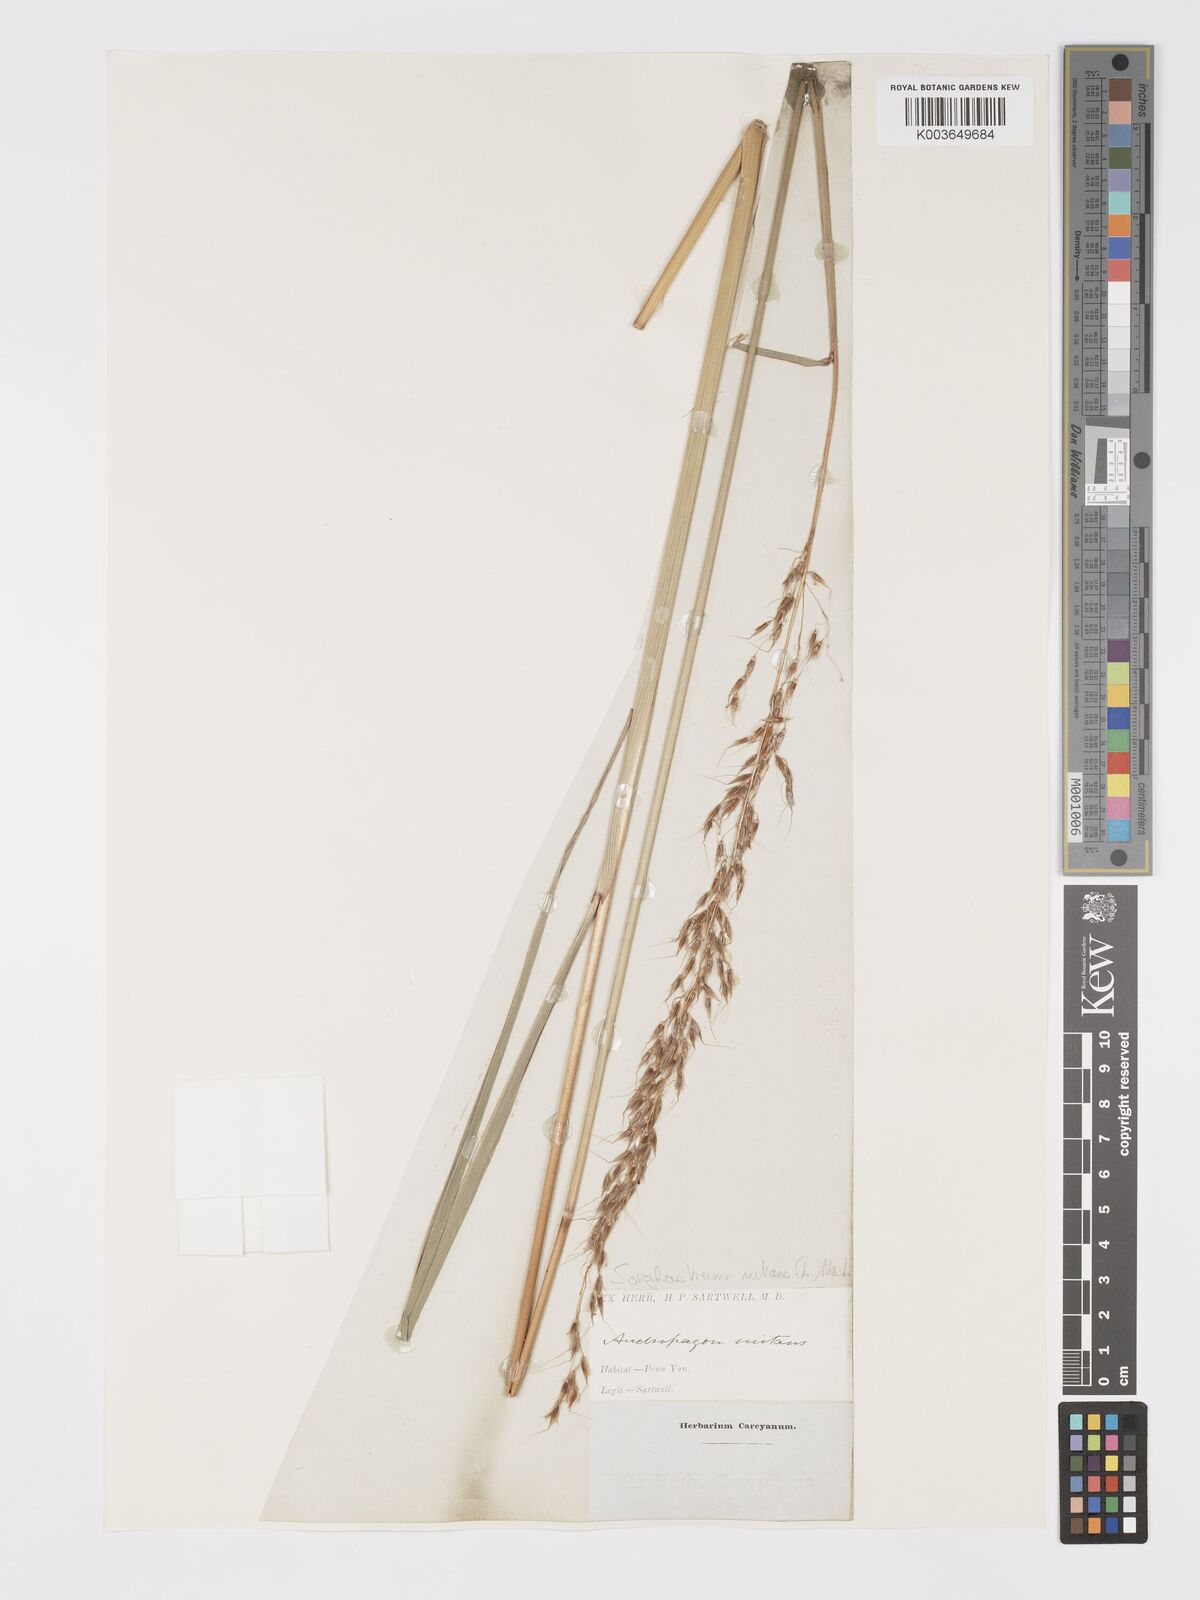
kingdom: Plantae
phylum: Tracheophyta
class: Liliopsida
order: Poales
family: Poaceae
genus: Sorghastrum
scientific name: Sorghastrum nutans
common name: Indian grass
